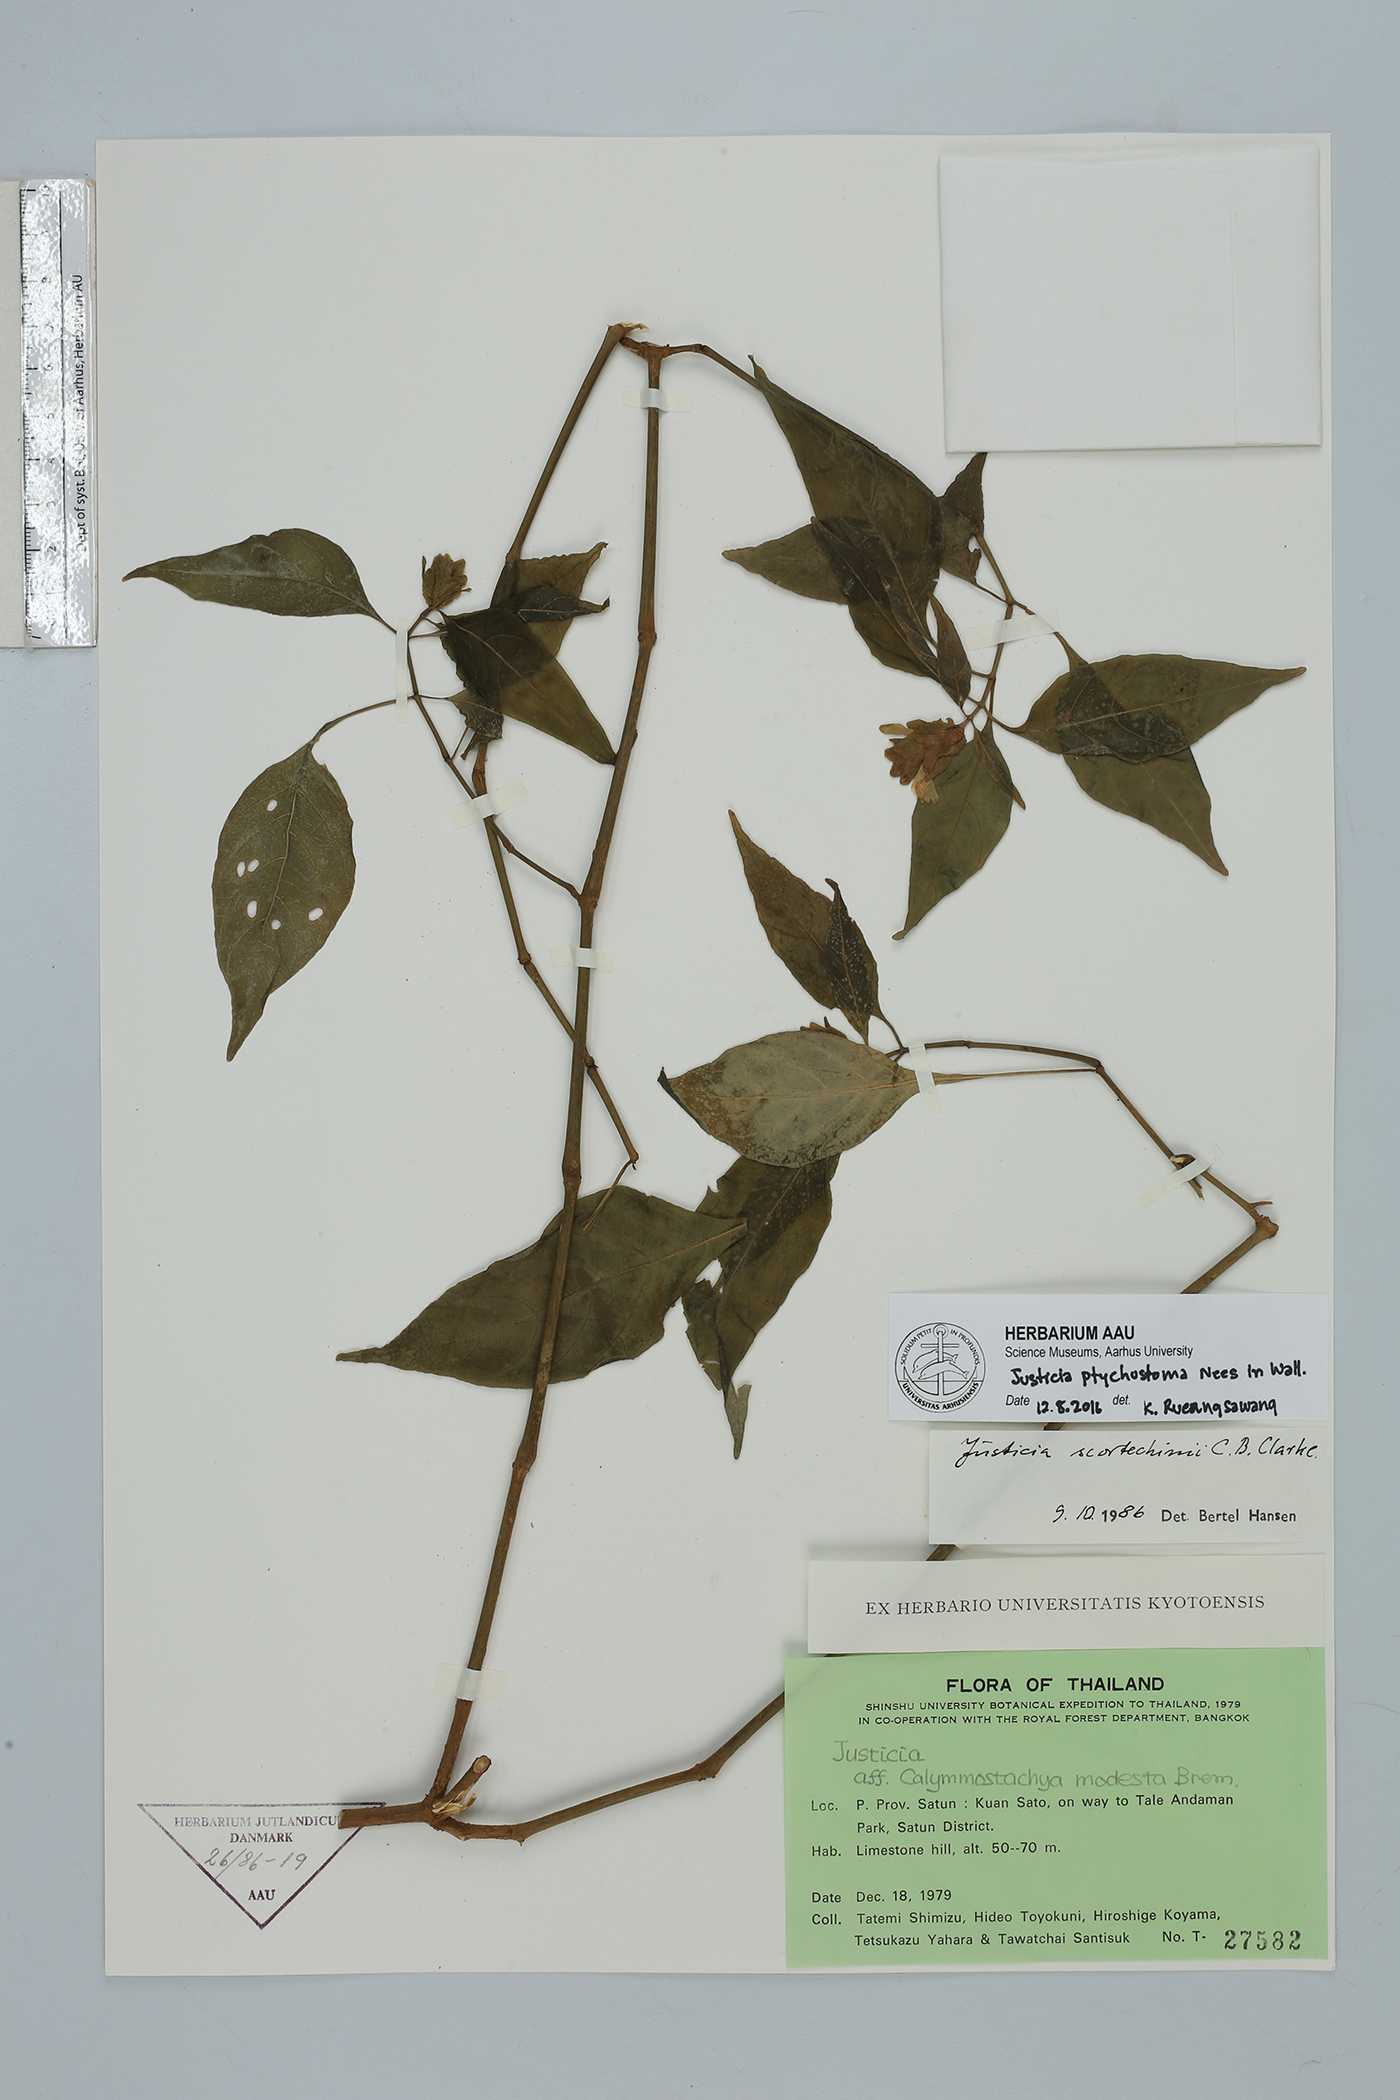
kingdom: Plantae
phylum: Tracheophyta
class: Magnoliopsida
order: Lamiales
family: Acanthaceae
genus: Justicia
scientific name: Justicia sumatrana
